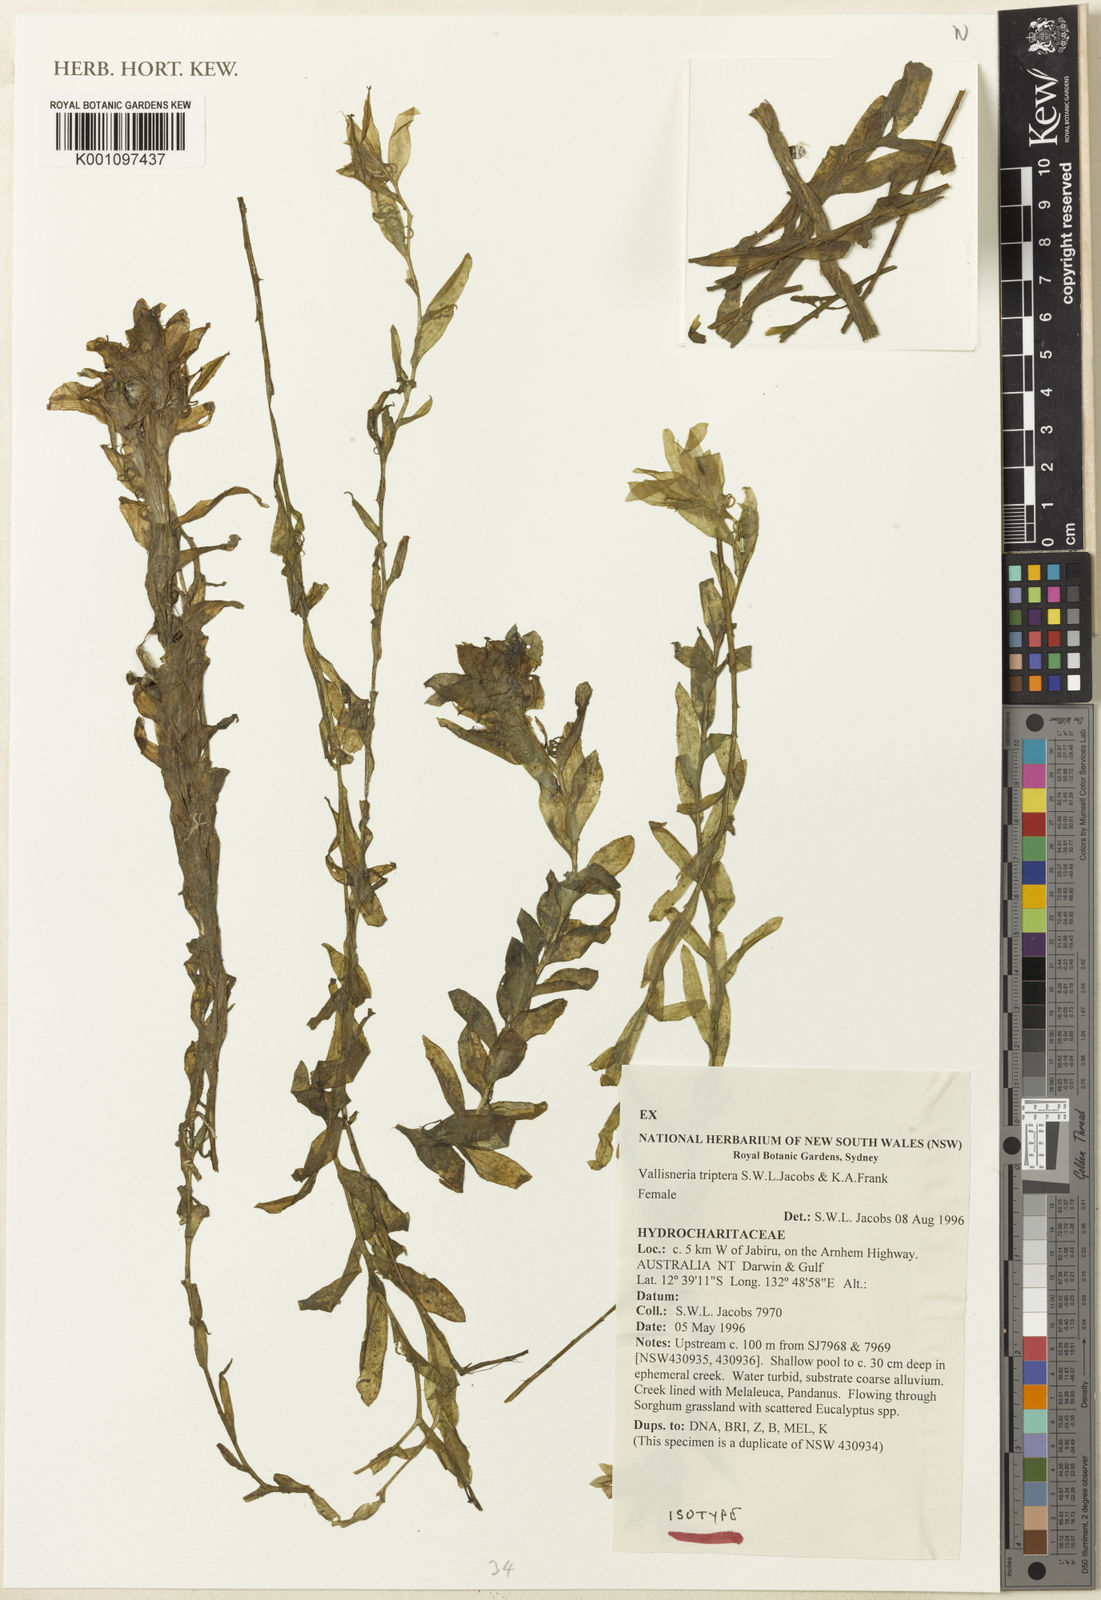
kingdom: Plantae
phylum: Tracheophyta
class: Liliopsida
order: Alismatales
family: Hydrocharitaceae
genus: Vallisneria
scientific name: Vallisneria triptera
